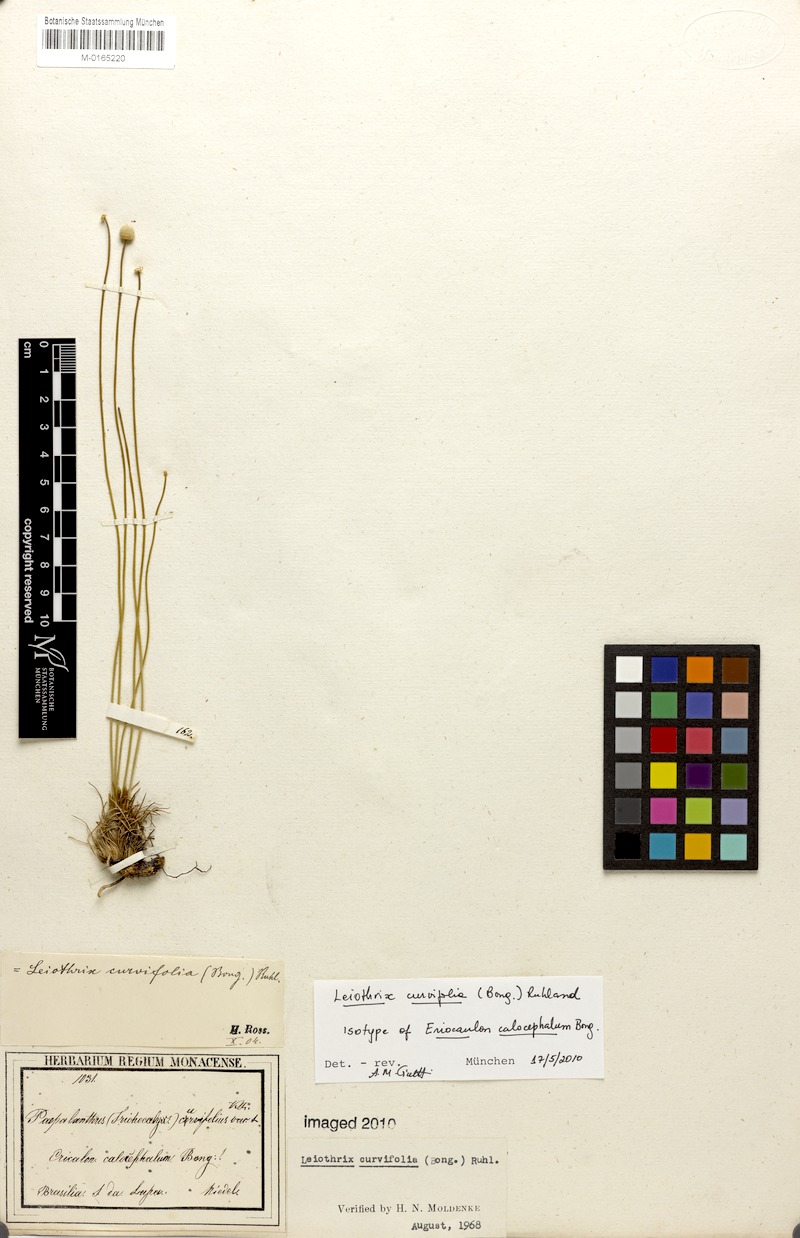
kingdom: Plantae
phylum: Tracheophyta
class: Liliopsida
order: Poales
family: Eriocaulaceae
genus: Leiothrix
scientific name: Leiothrix curvifolia
